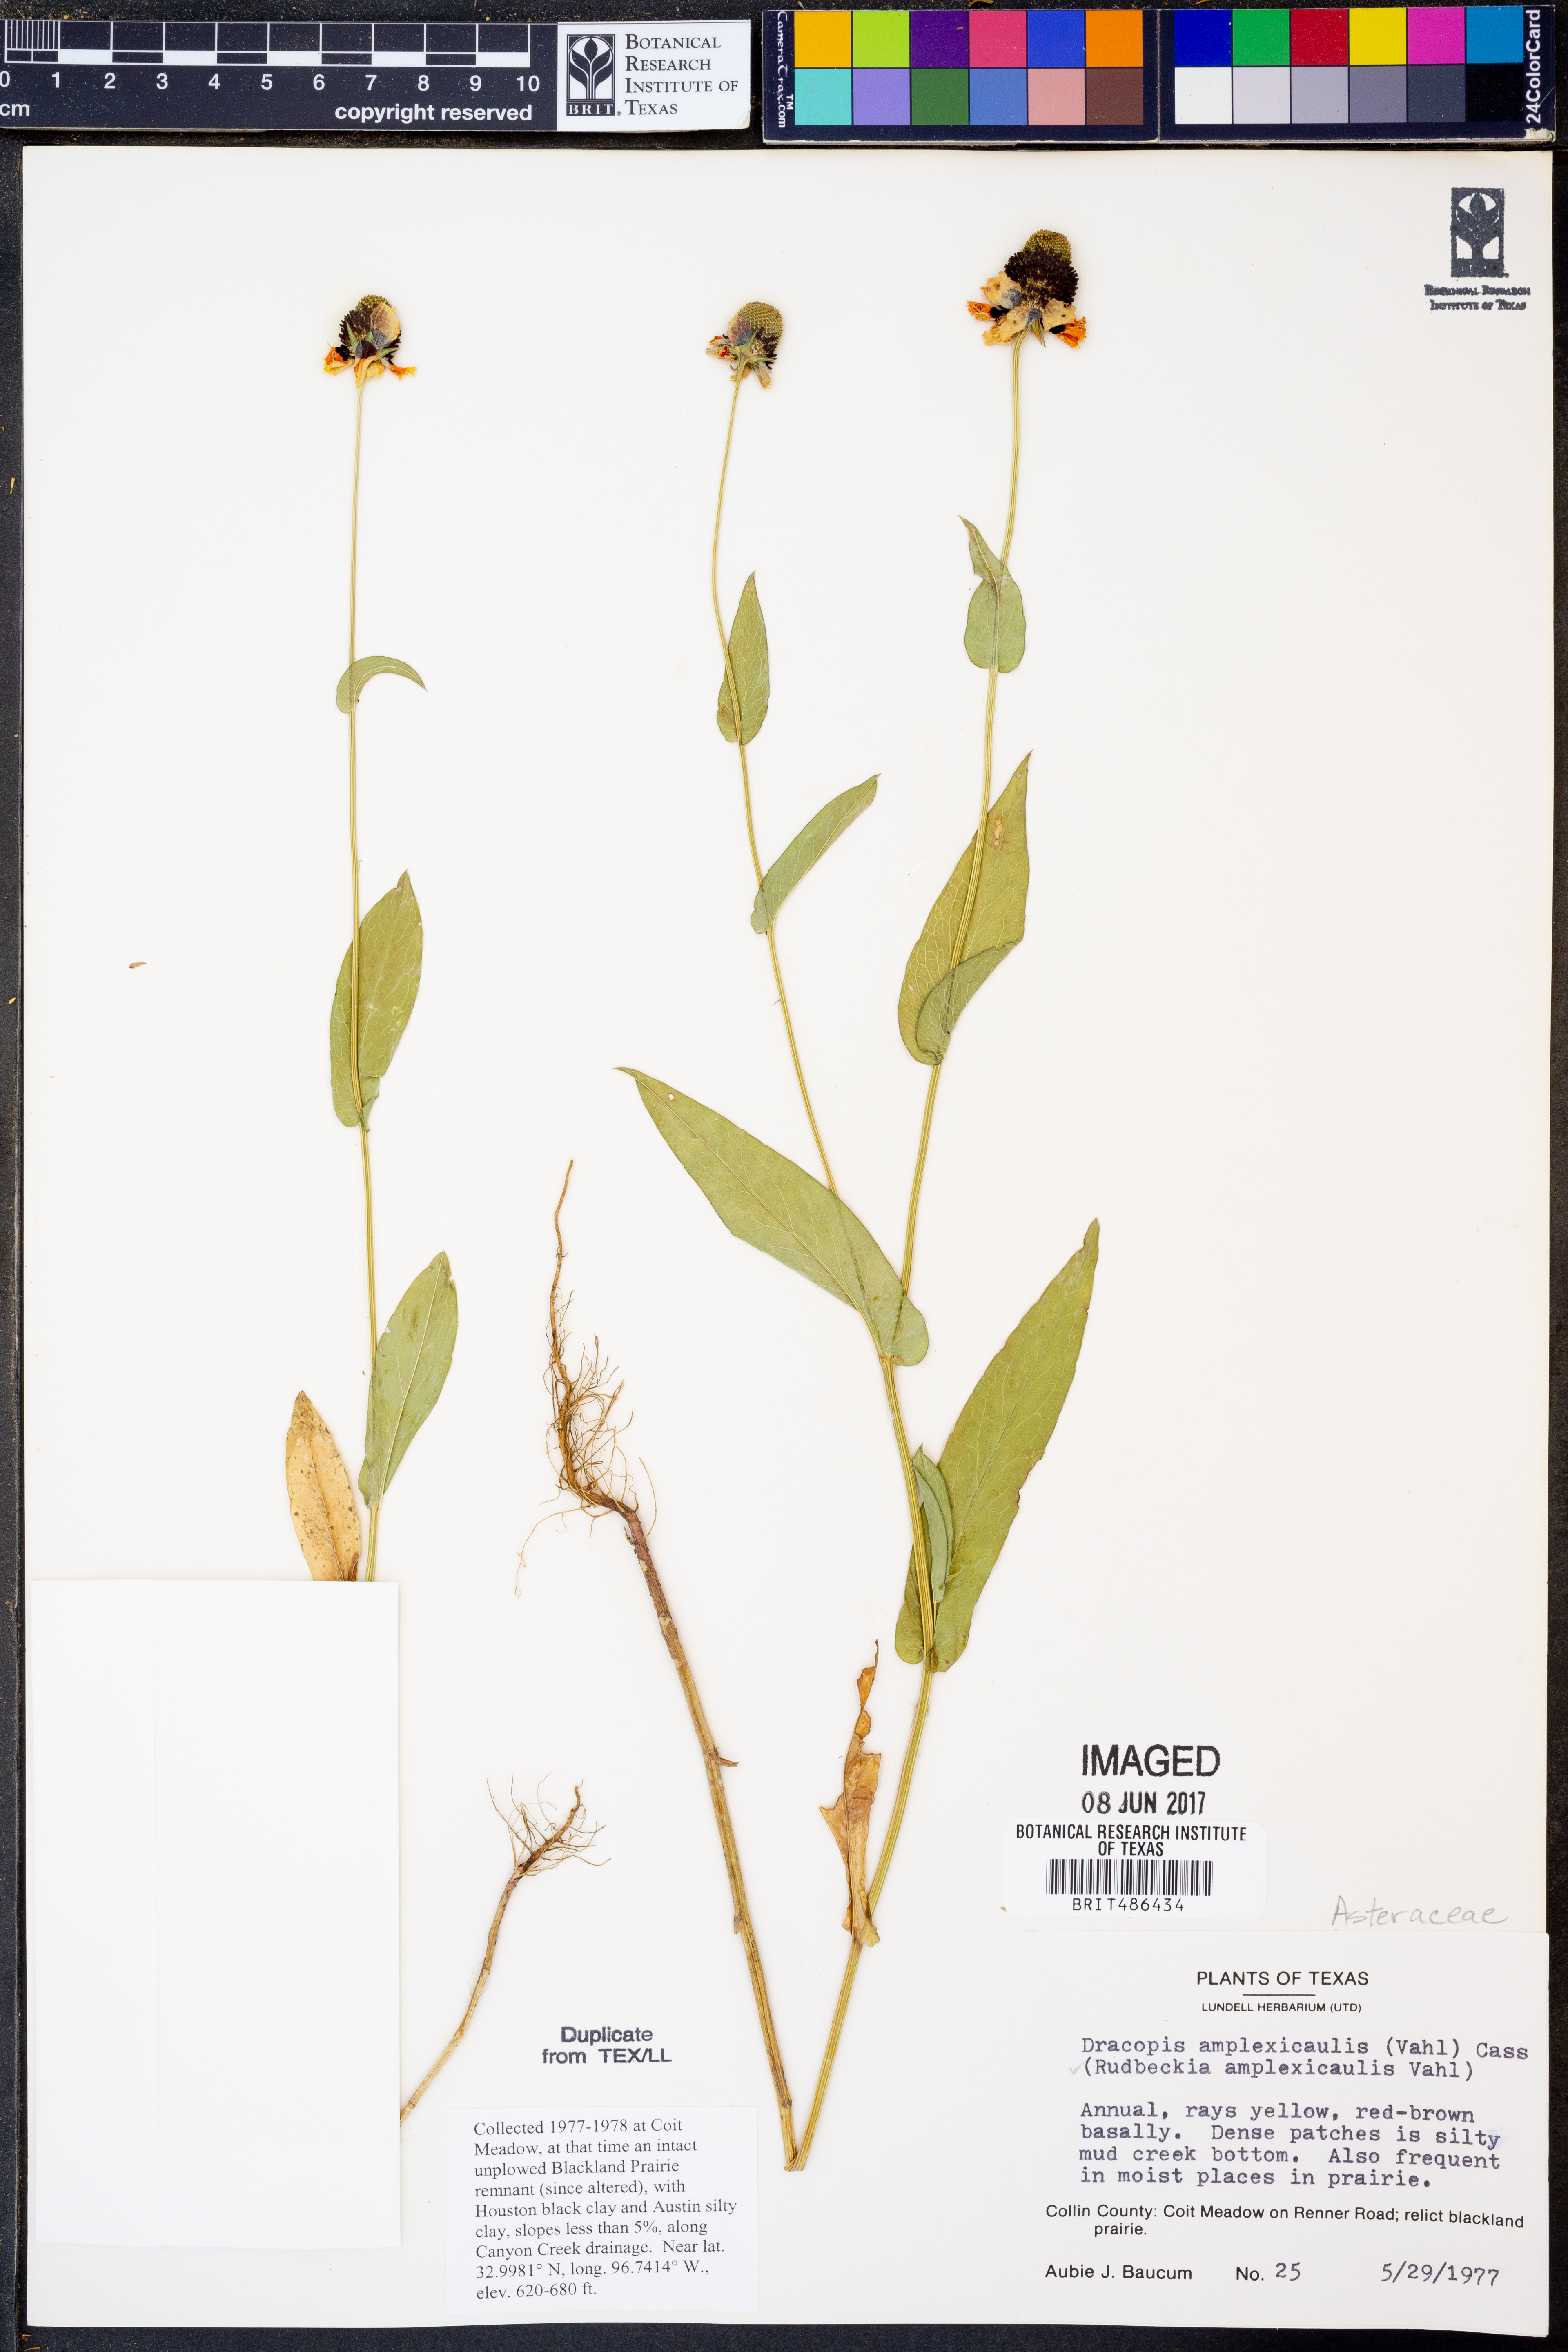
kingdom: Plantae
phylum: Tracheophyta
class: Magnoliopsida
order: Asterales
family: Asteraceae
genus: Rudbeckia
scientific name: Rudbeckia amplexicaulis
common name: Clasping-leaf coneflower
